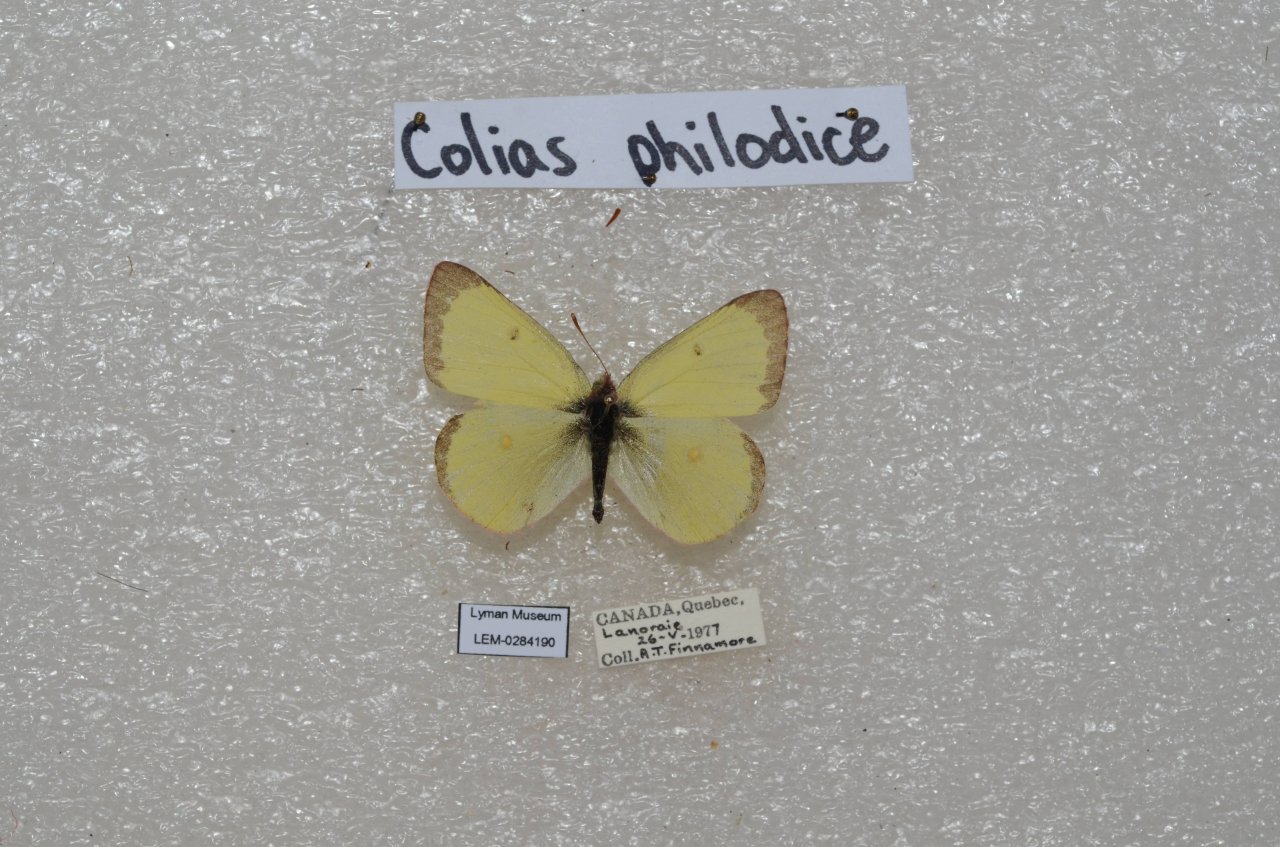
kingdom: Animalia
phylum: Arthropoda
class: Insecta
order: Lepidoptera
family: Pieridae
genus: Colias
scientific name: Colias philodice
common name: Clouded Sulphur
